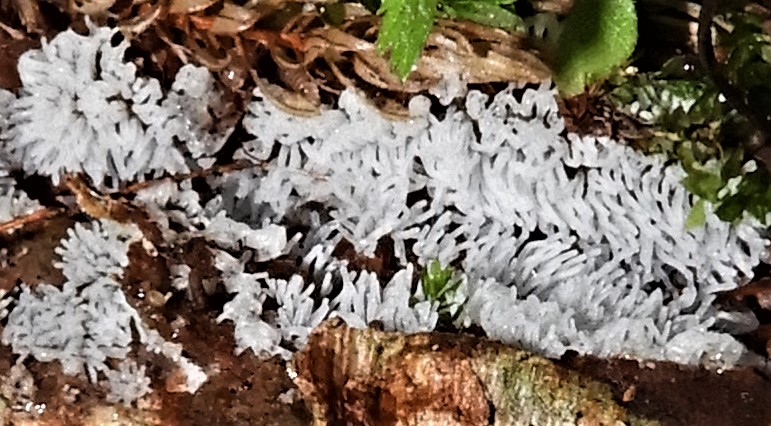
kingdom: Protozoa
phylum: Mycetozoa
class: Protosteliomycetes
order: Ceratiomyxales
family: Ceratiomyxaceae
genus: Ceratiomyxa
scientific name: Ceratiomyxa fruticulosa
